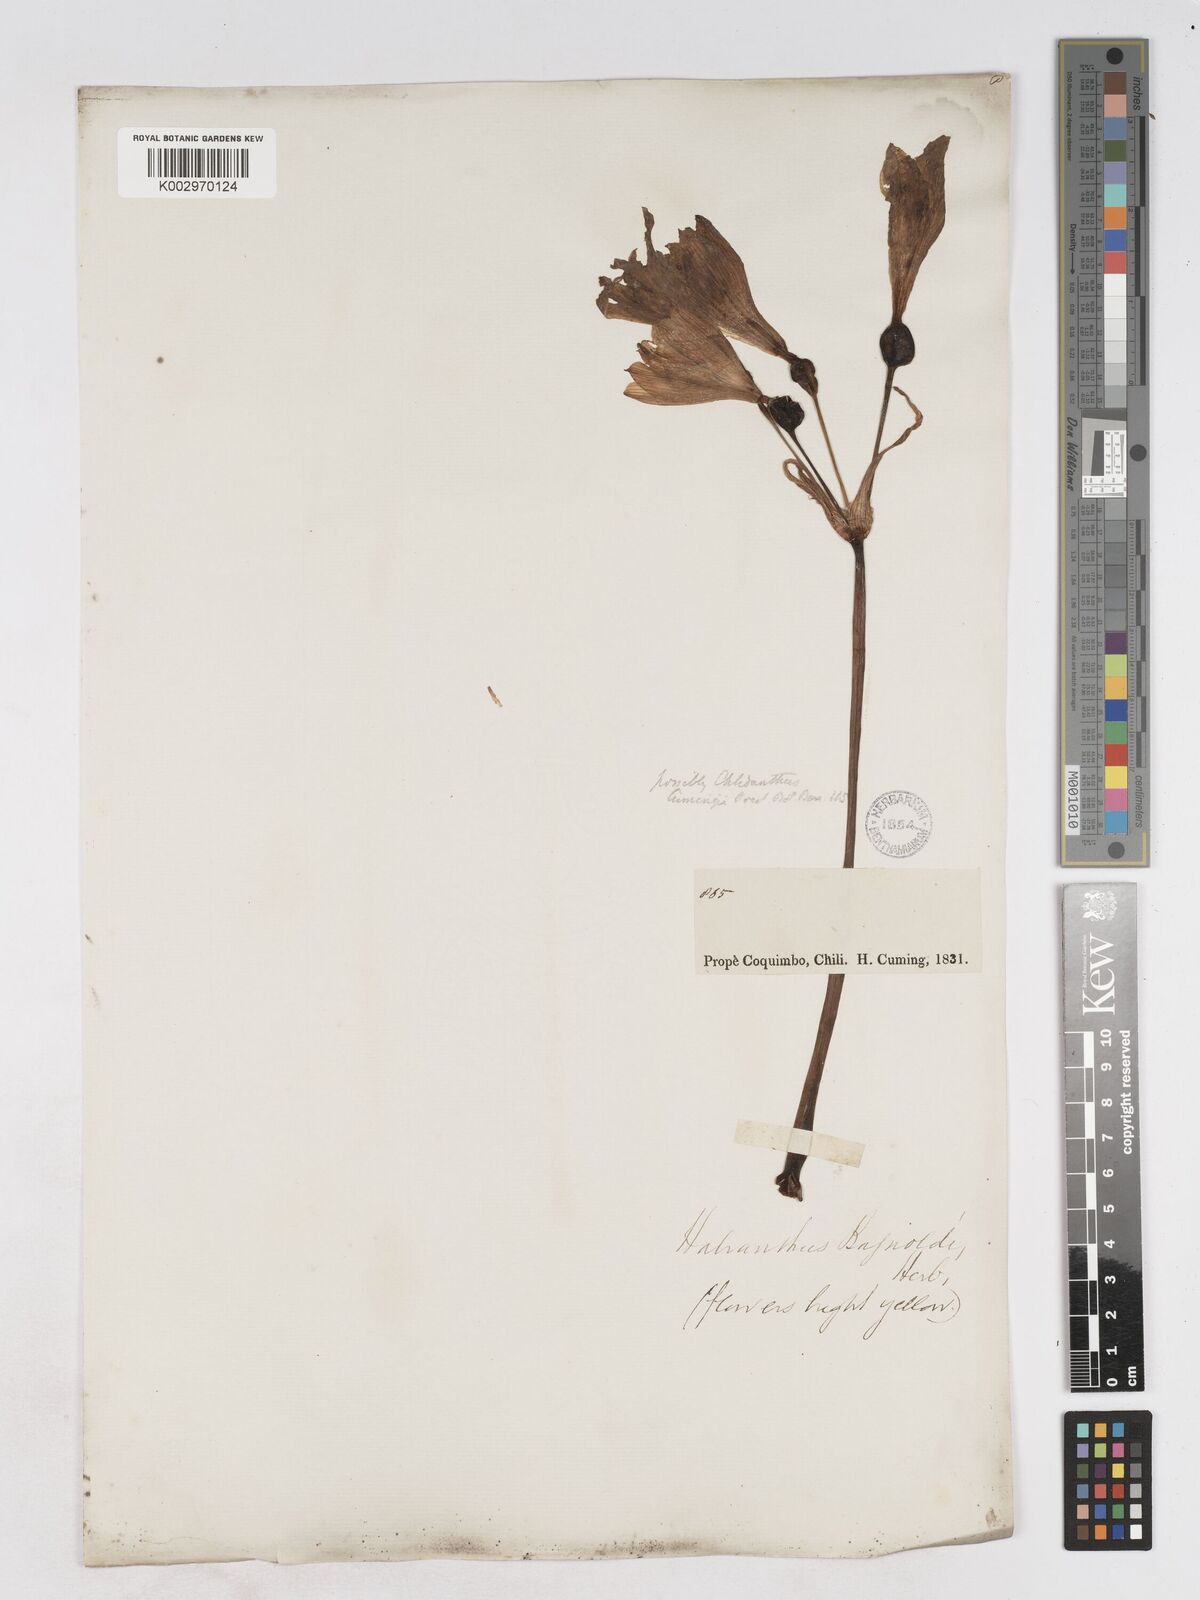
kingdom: Plantae
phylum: Tracheophyta
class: Liliopsida
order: Asparagales
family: Amaryllidaceae
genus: Zephyranthes
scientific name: Zephyranthes bagnoldii
